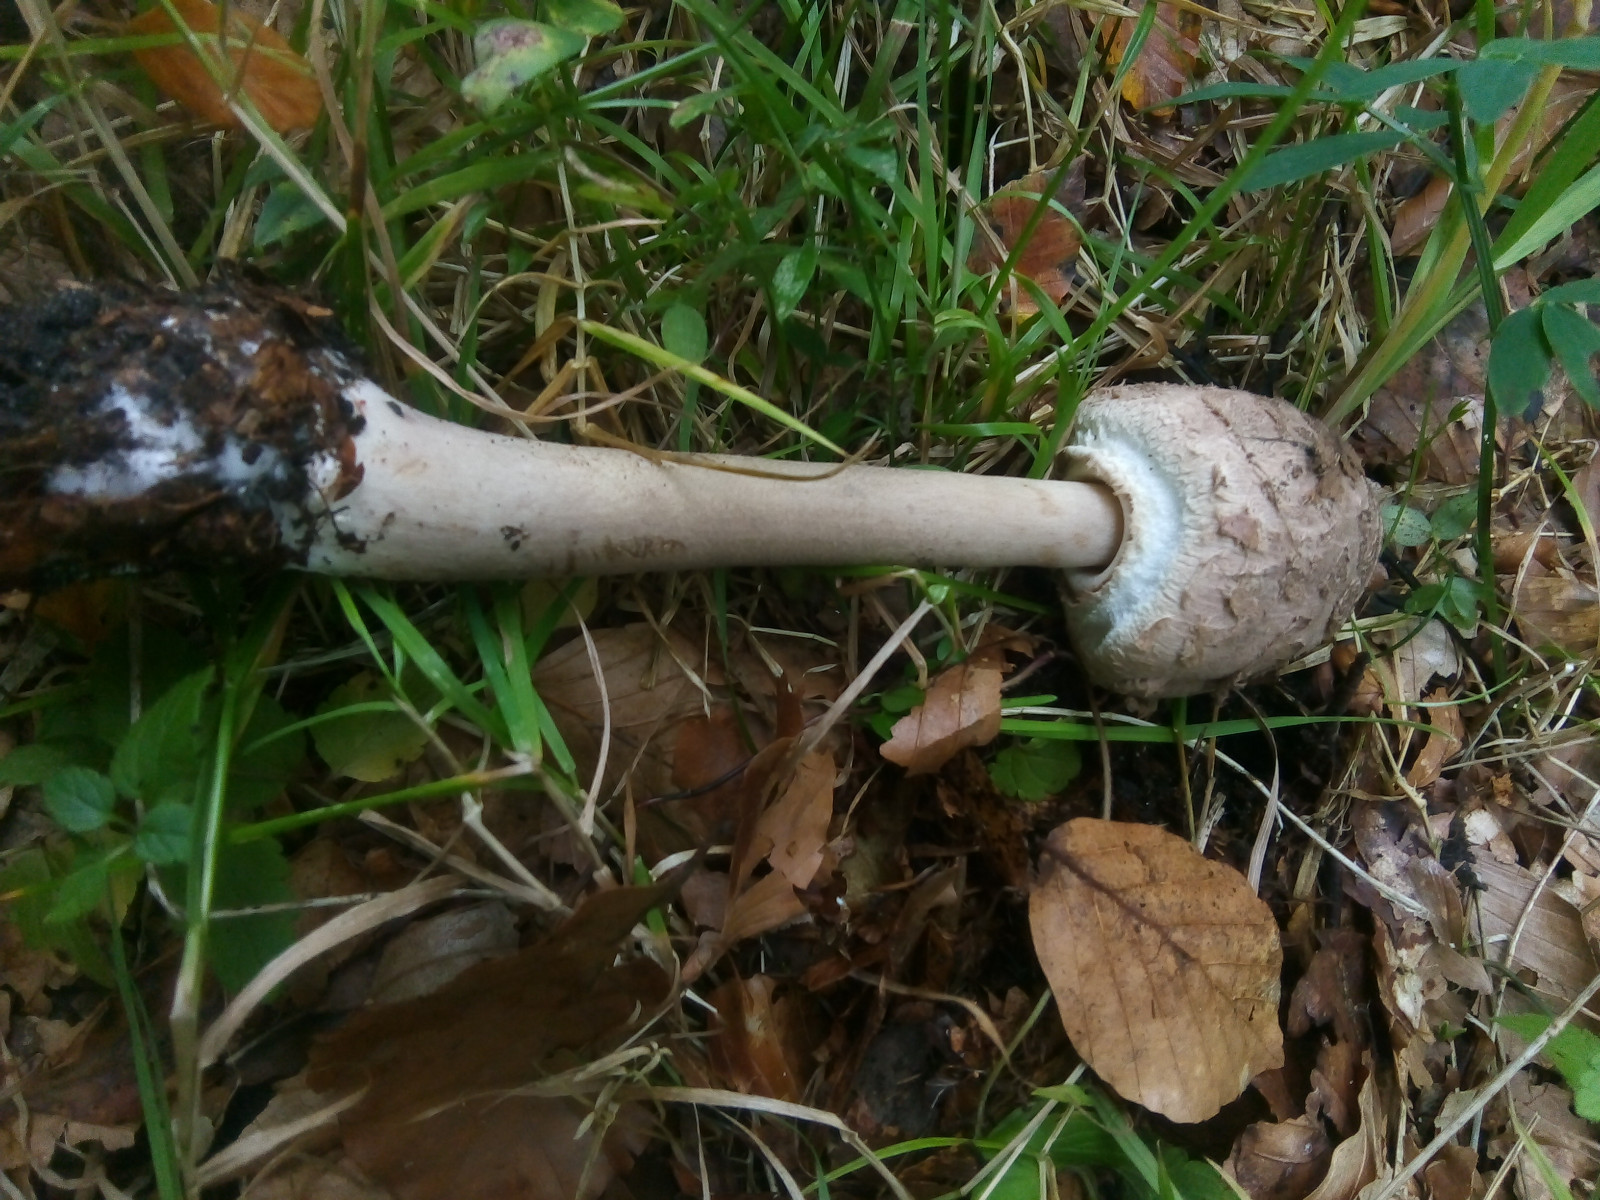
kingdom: Fungi
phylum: Basidiomycota
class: Agaricomycetes
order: Agaricales
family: Agaricaceae
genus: Macrolepiota
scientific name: Macrolepiota fuliginosa
